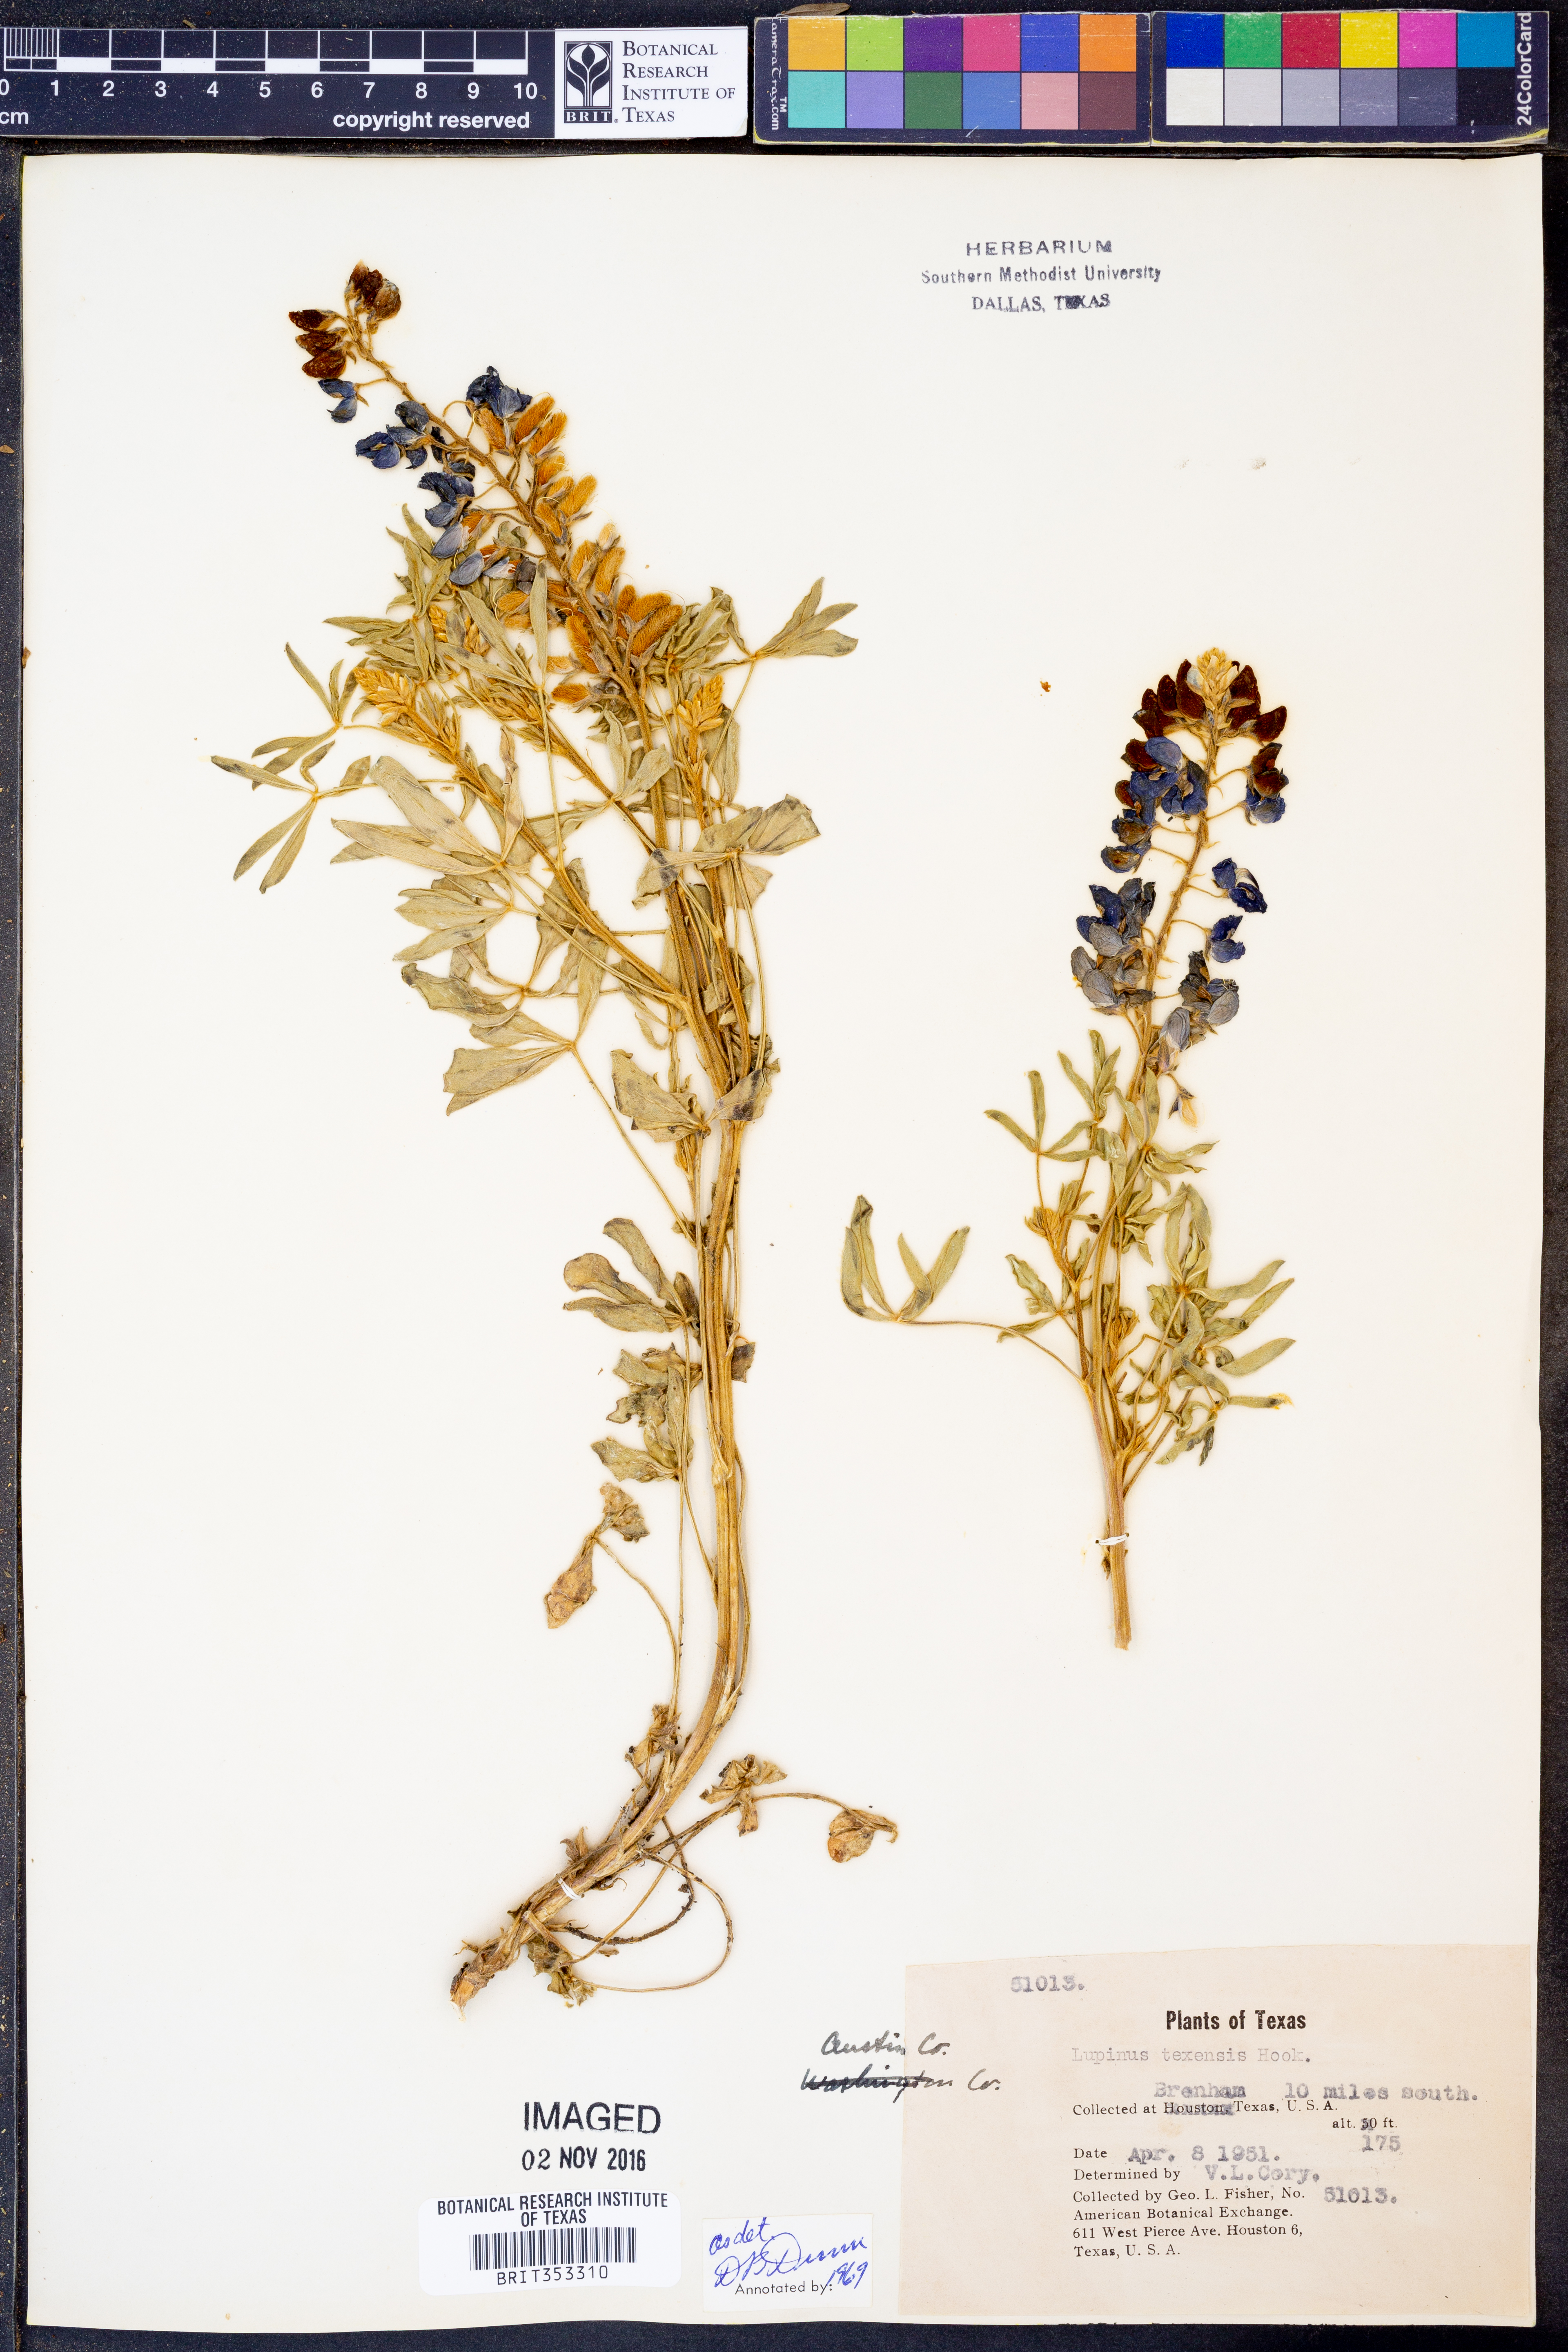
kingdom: Plantae
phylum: Tracheophyta
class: Magnoliopsida
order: Fabales
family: Fabaceae
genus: Lupinus
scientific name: Lupinus texensis
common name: Texas bluebonnet
